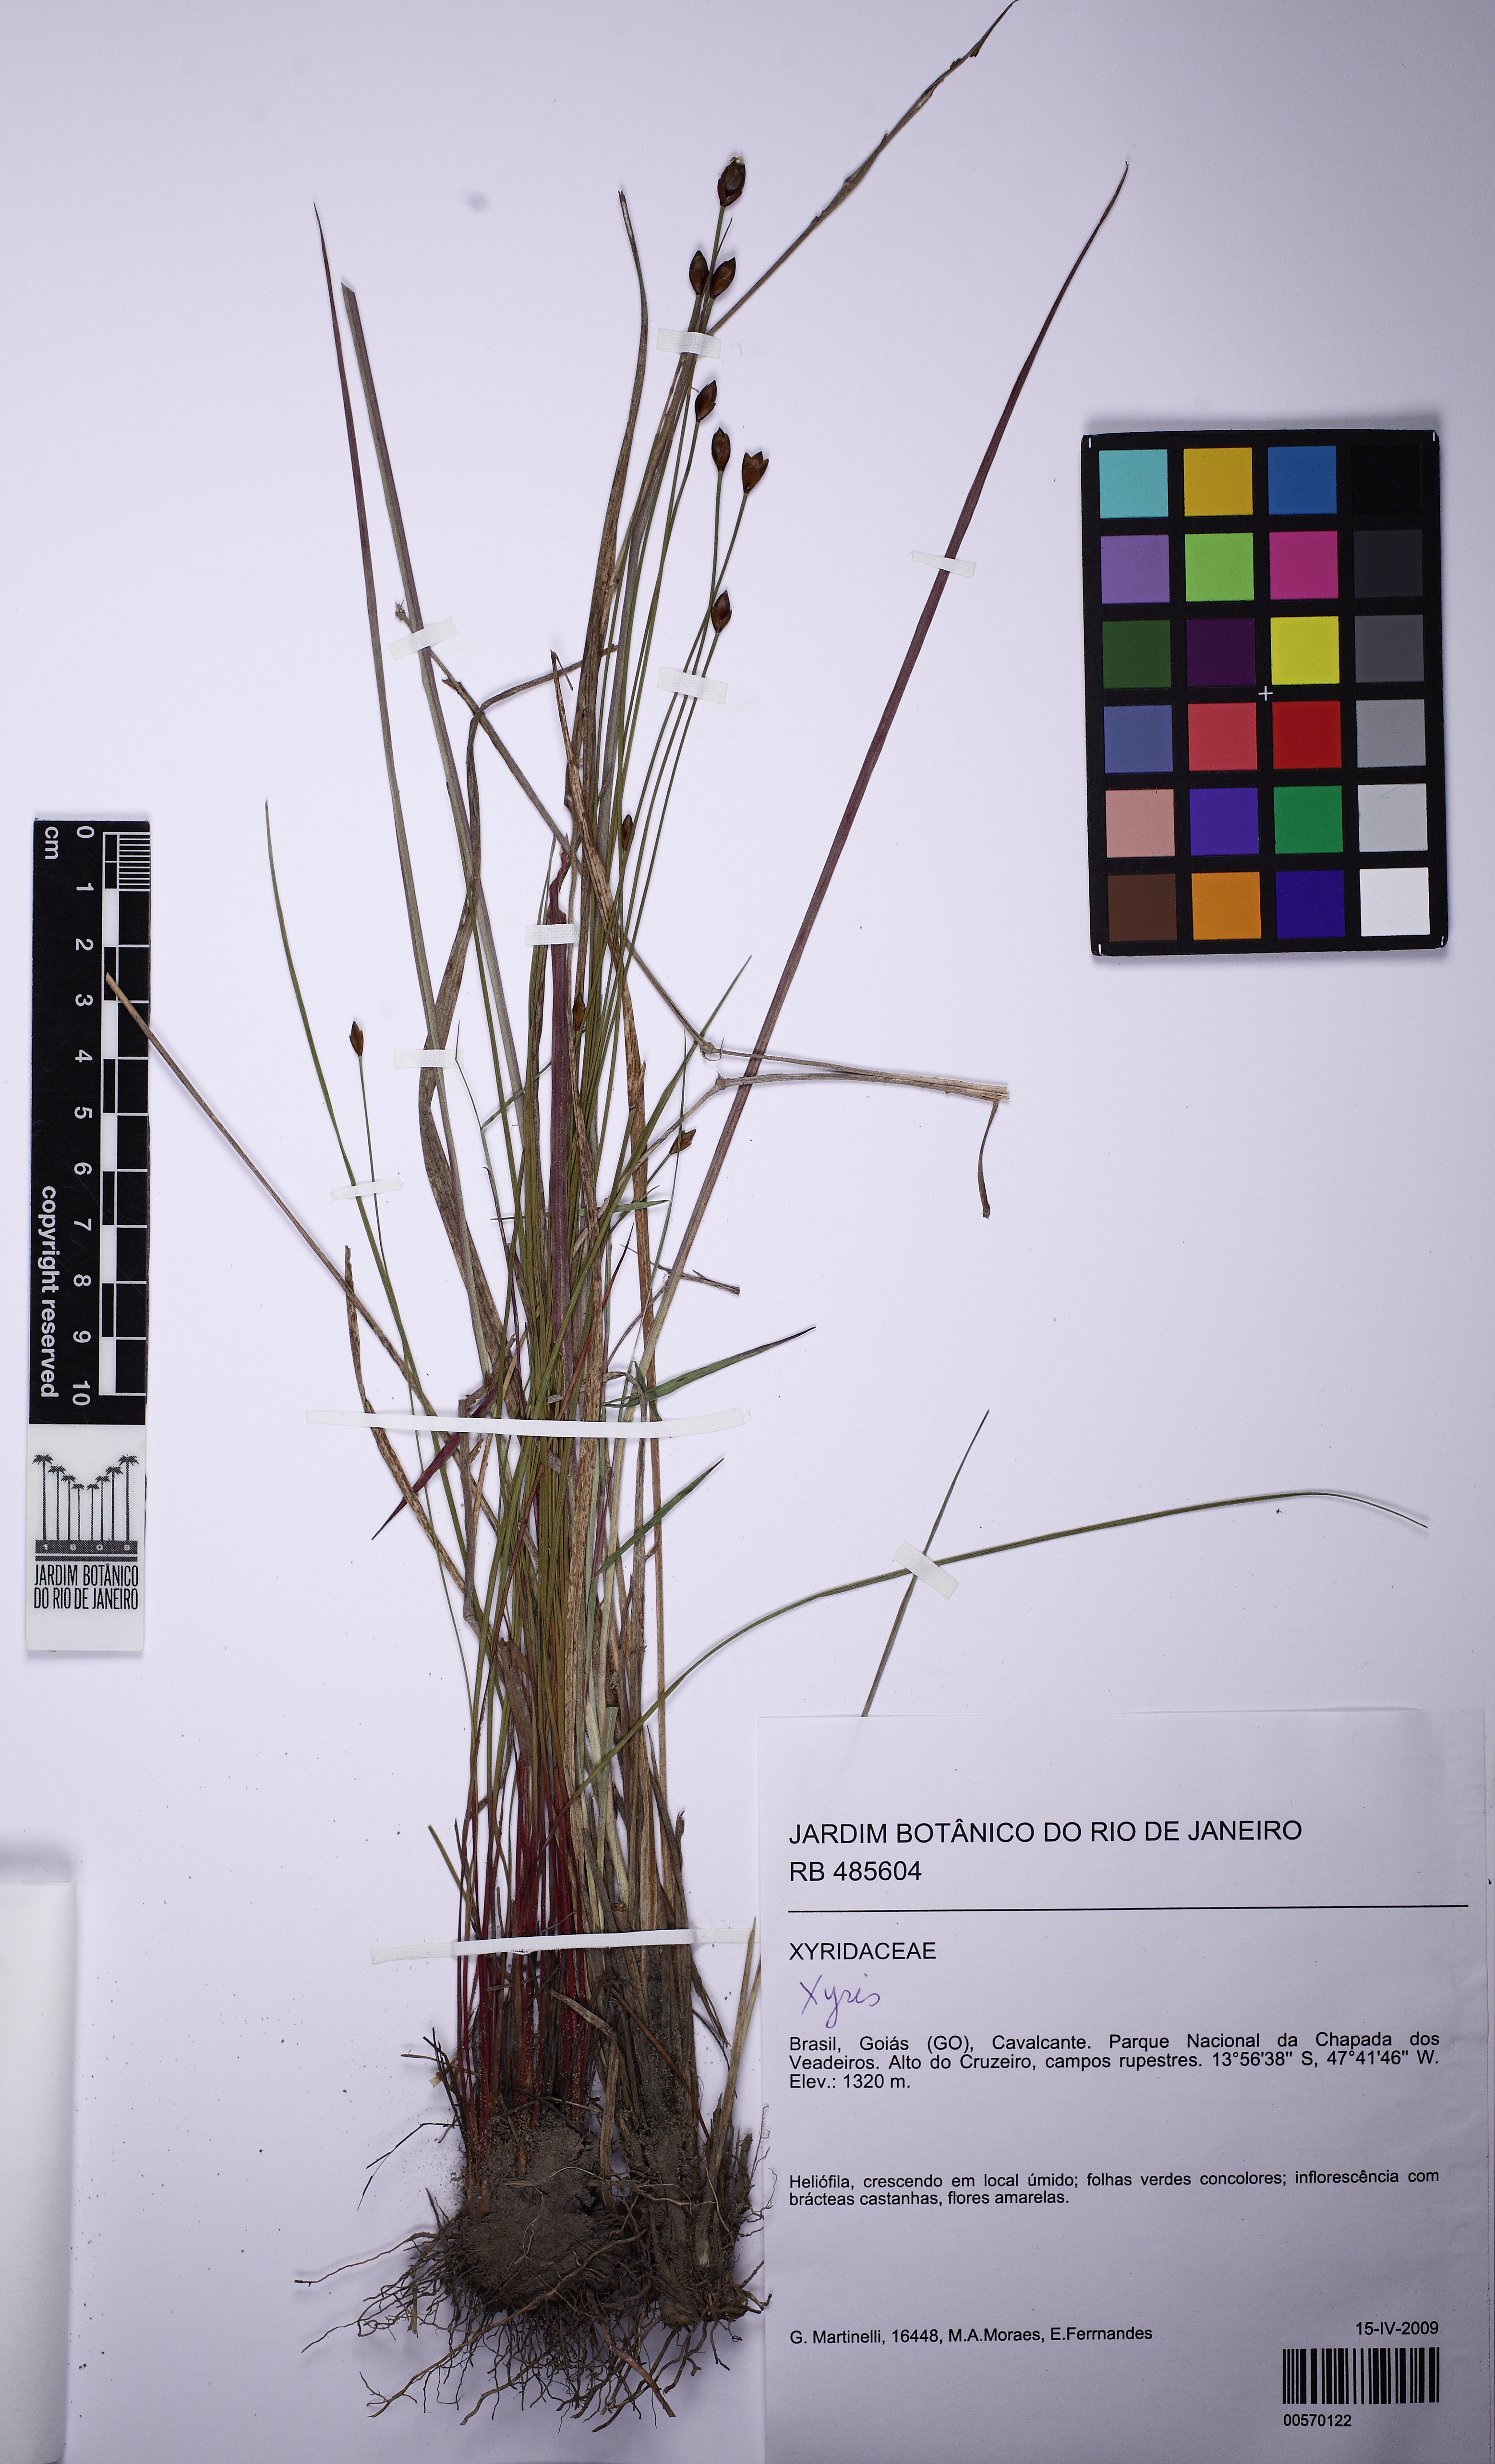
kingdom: Plantae
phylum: Tracheophyta
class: Liliopsida
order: Poales
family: Xyridaceae
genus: Xyris
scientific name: Xyris dawsonii
